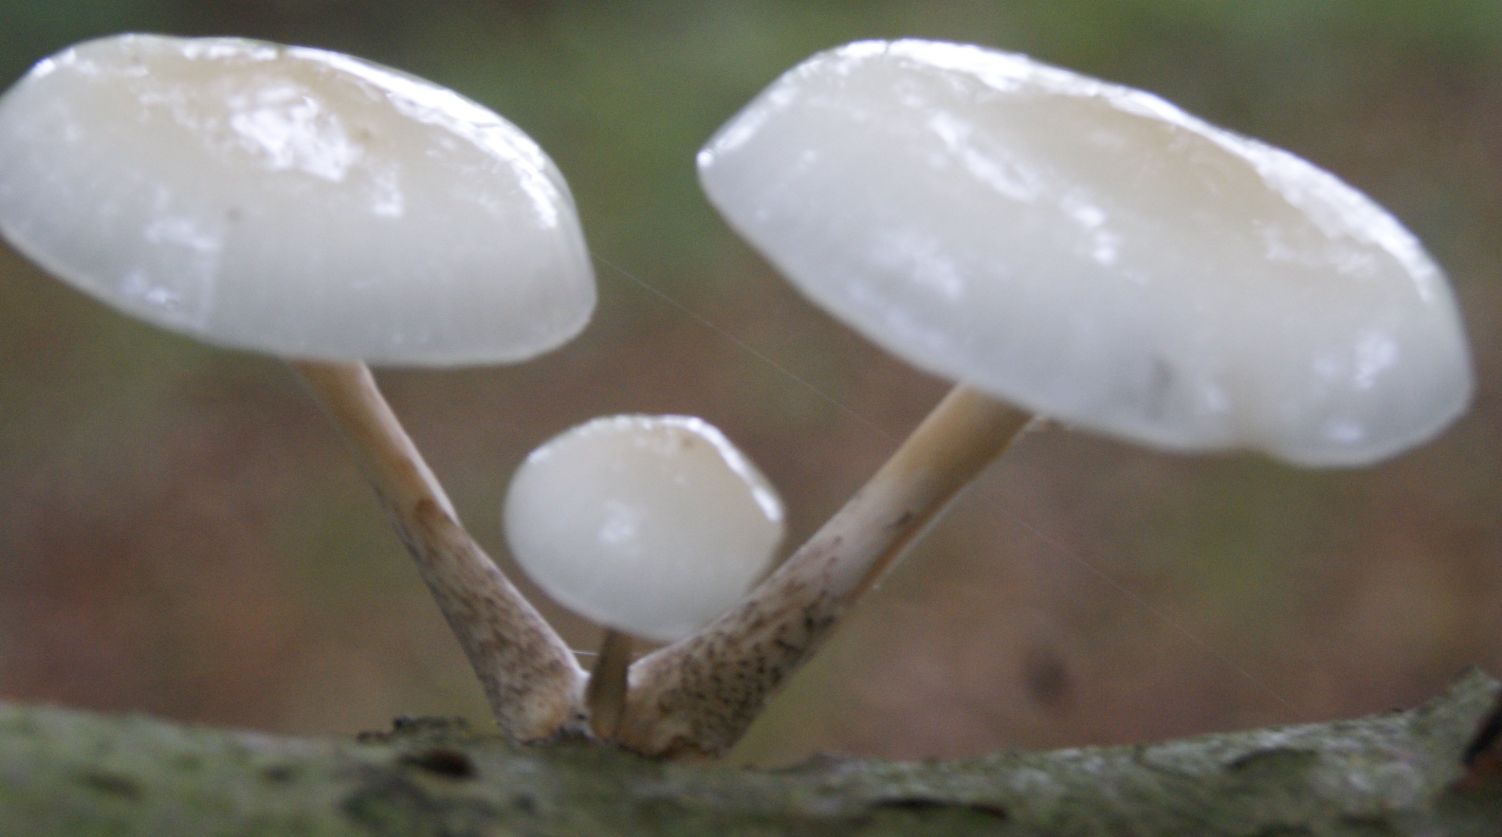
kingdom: Fungi
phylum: Basidiomycota
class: Agaricomycetes
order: Agaricales
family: Physalacriaceae
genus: Mucidula
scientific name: Mucidula mucida
